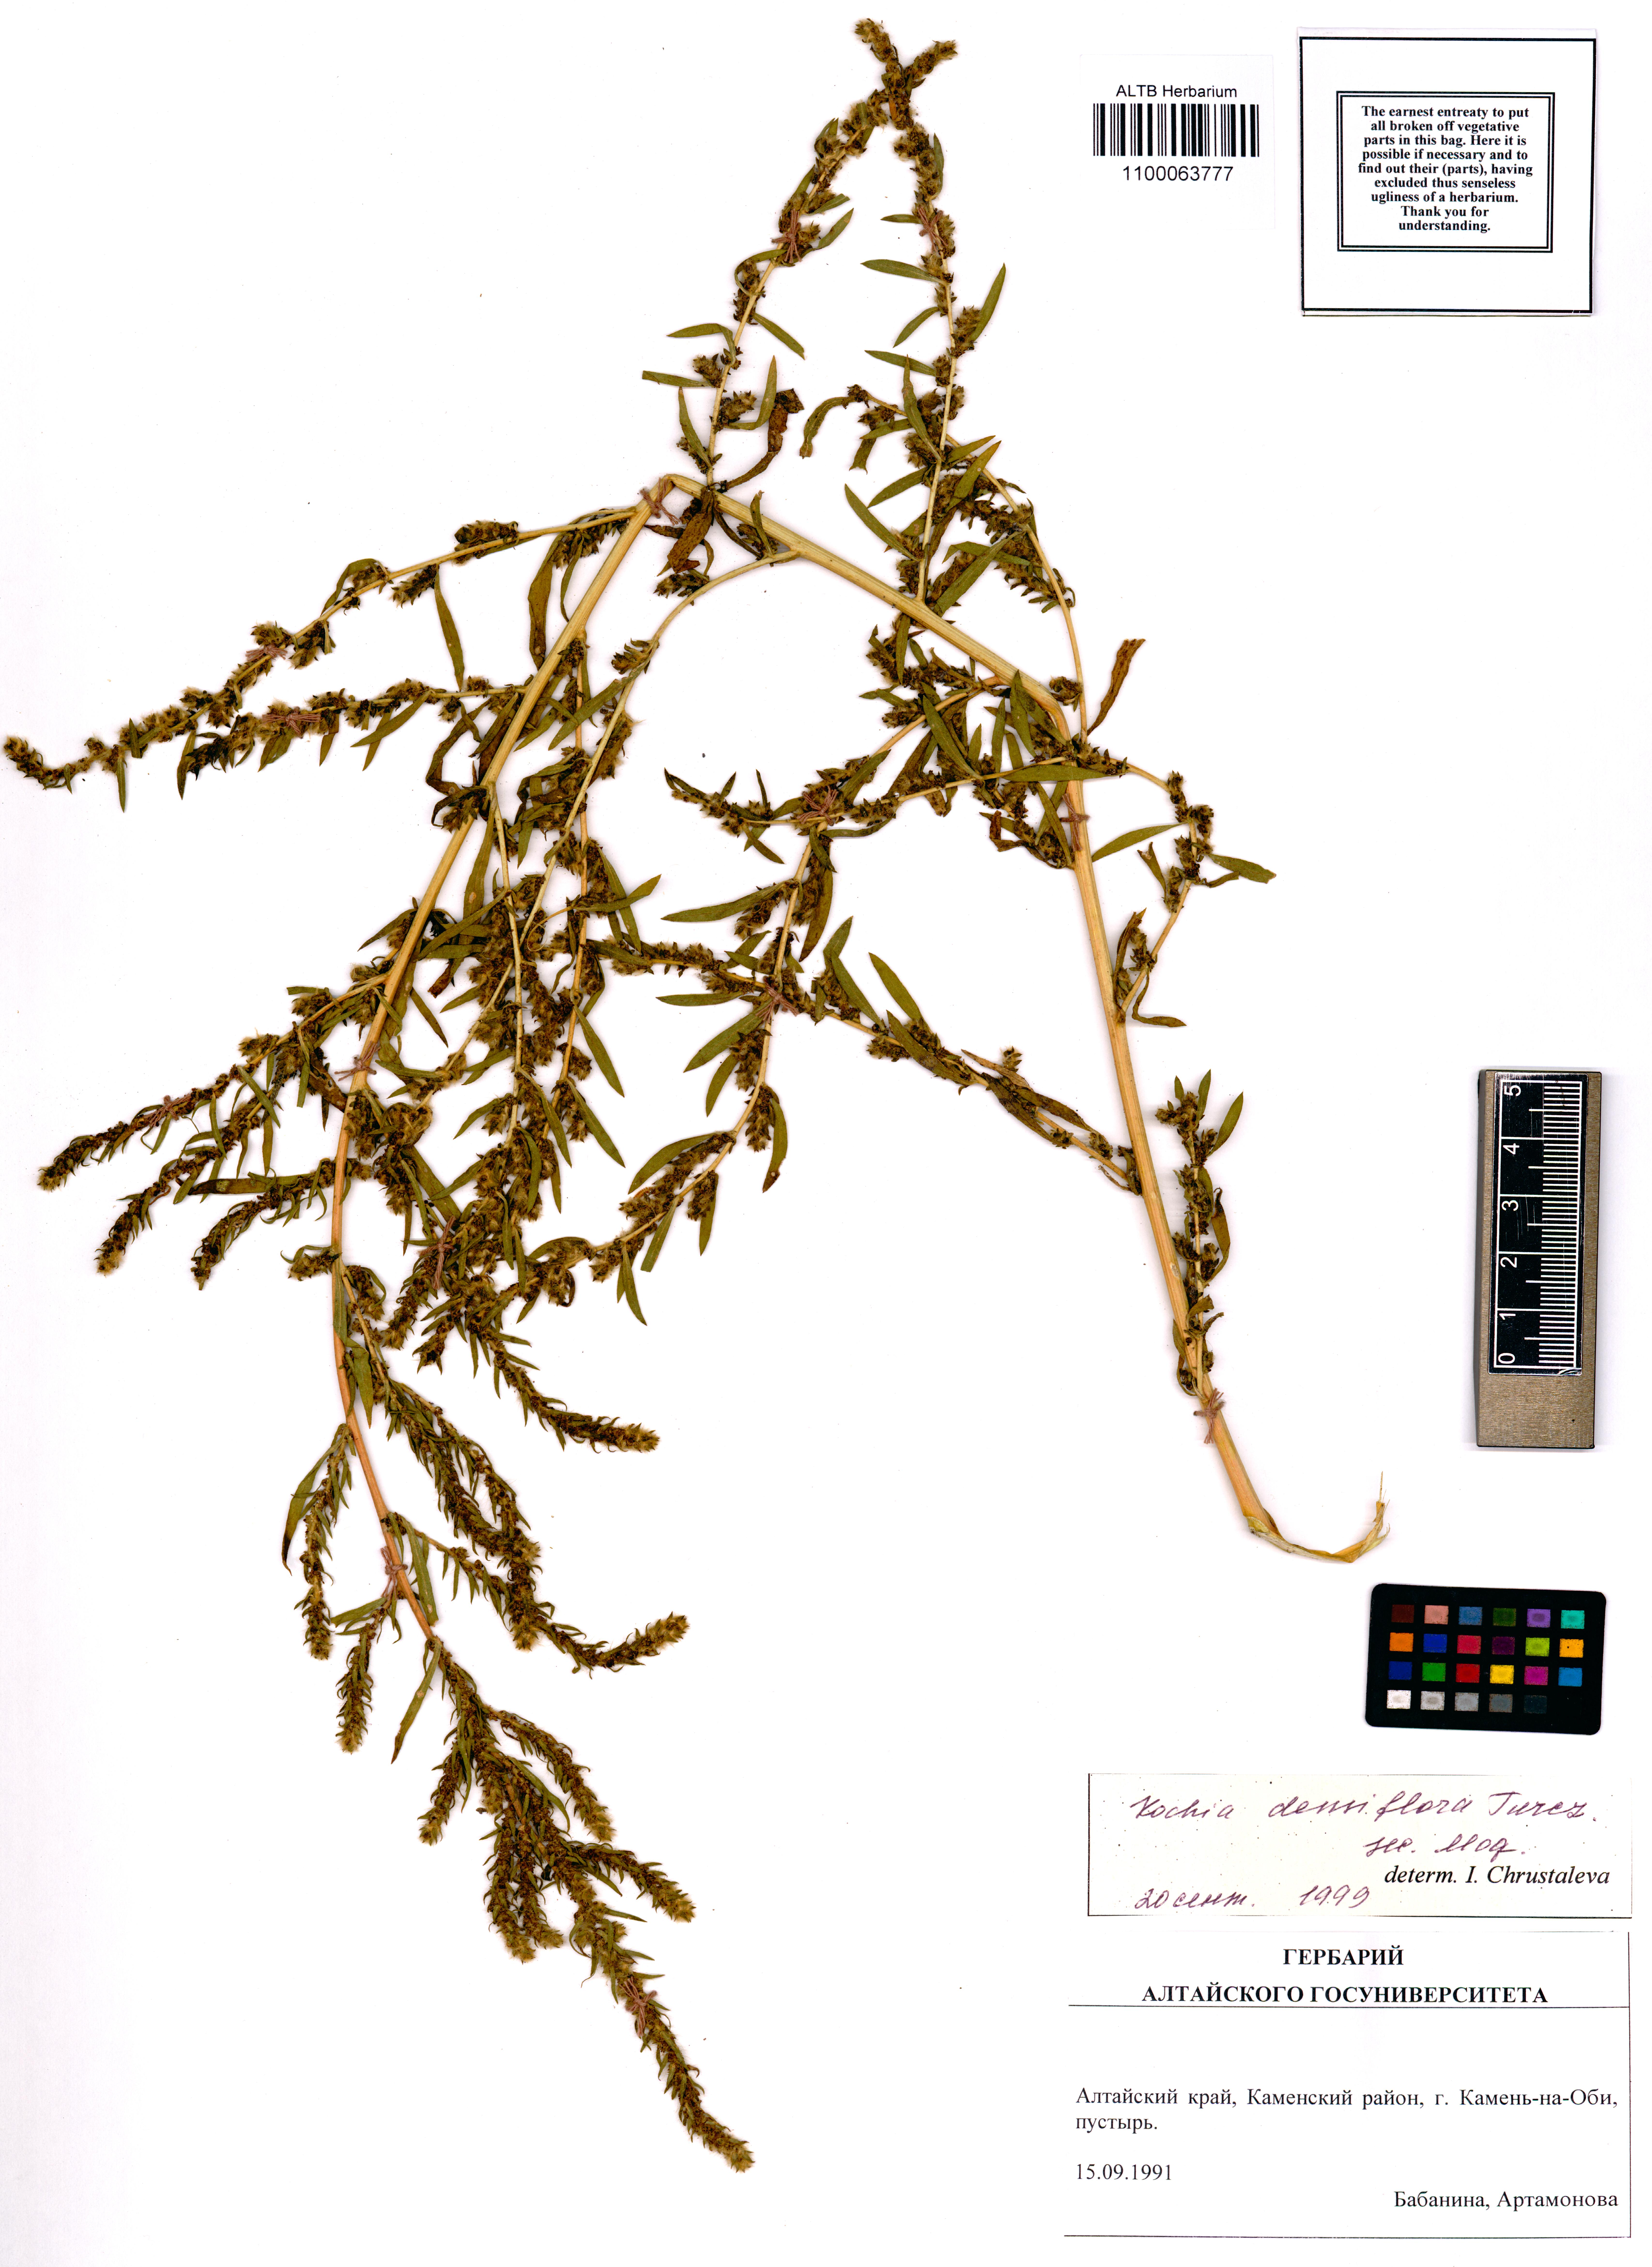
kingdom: Plantae
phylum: Tracheophyta
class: Magnoliopsida
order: Caryophyllales
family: Amaranthaceae
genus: Bassia
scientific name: Bassia scoparia
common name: Belvedere
